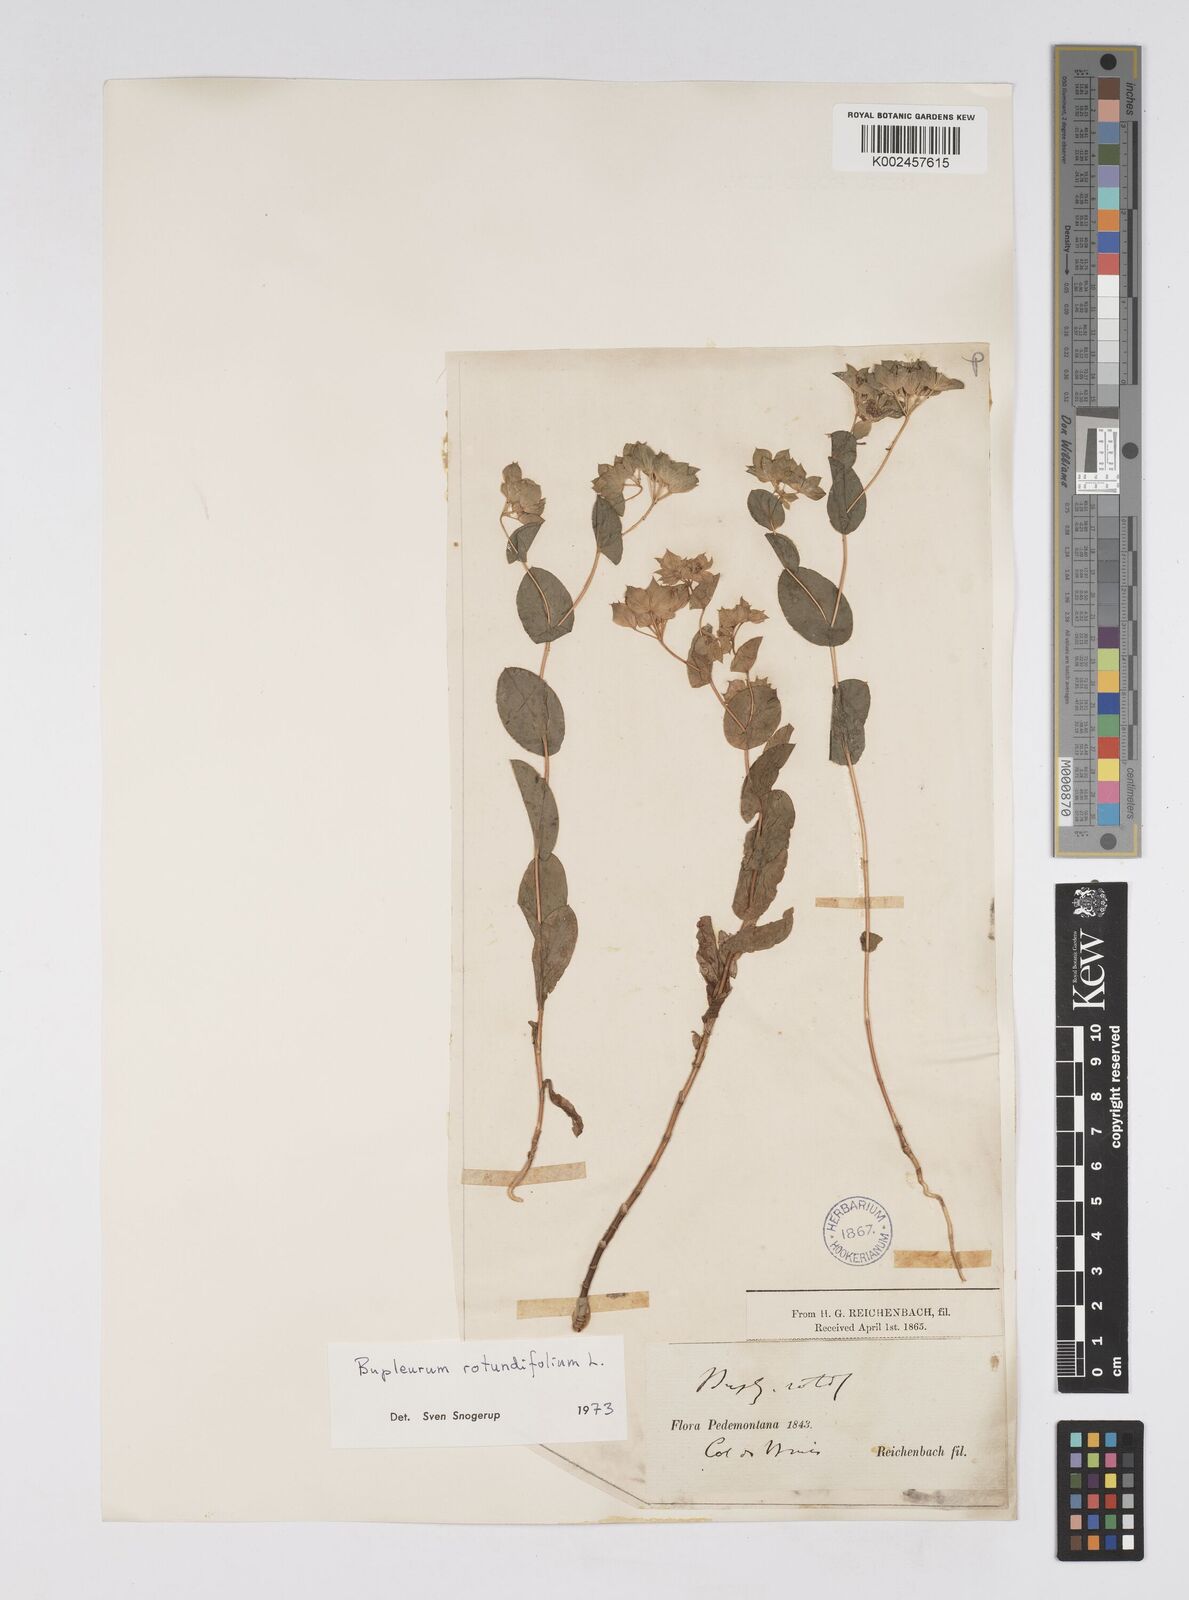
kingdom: Plantae
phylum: Tracheophyta
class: Magnoliopsida
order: Apiales
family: Apiaceae
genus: Bupleurum
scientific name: Bupleurum rotundifolium
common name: Thorow-wax
